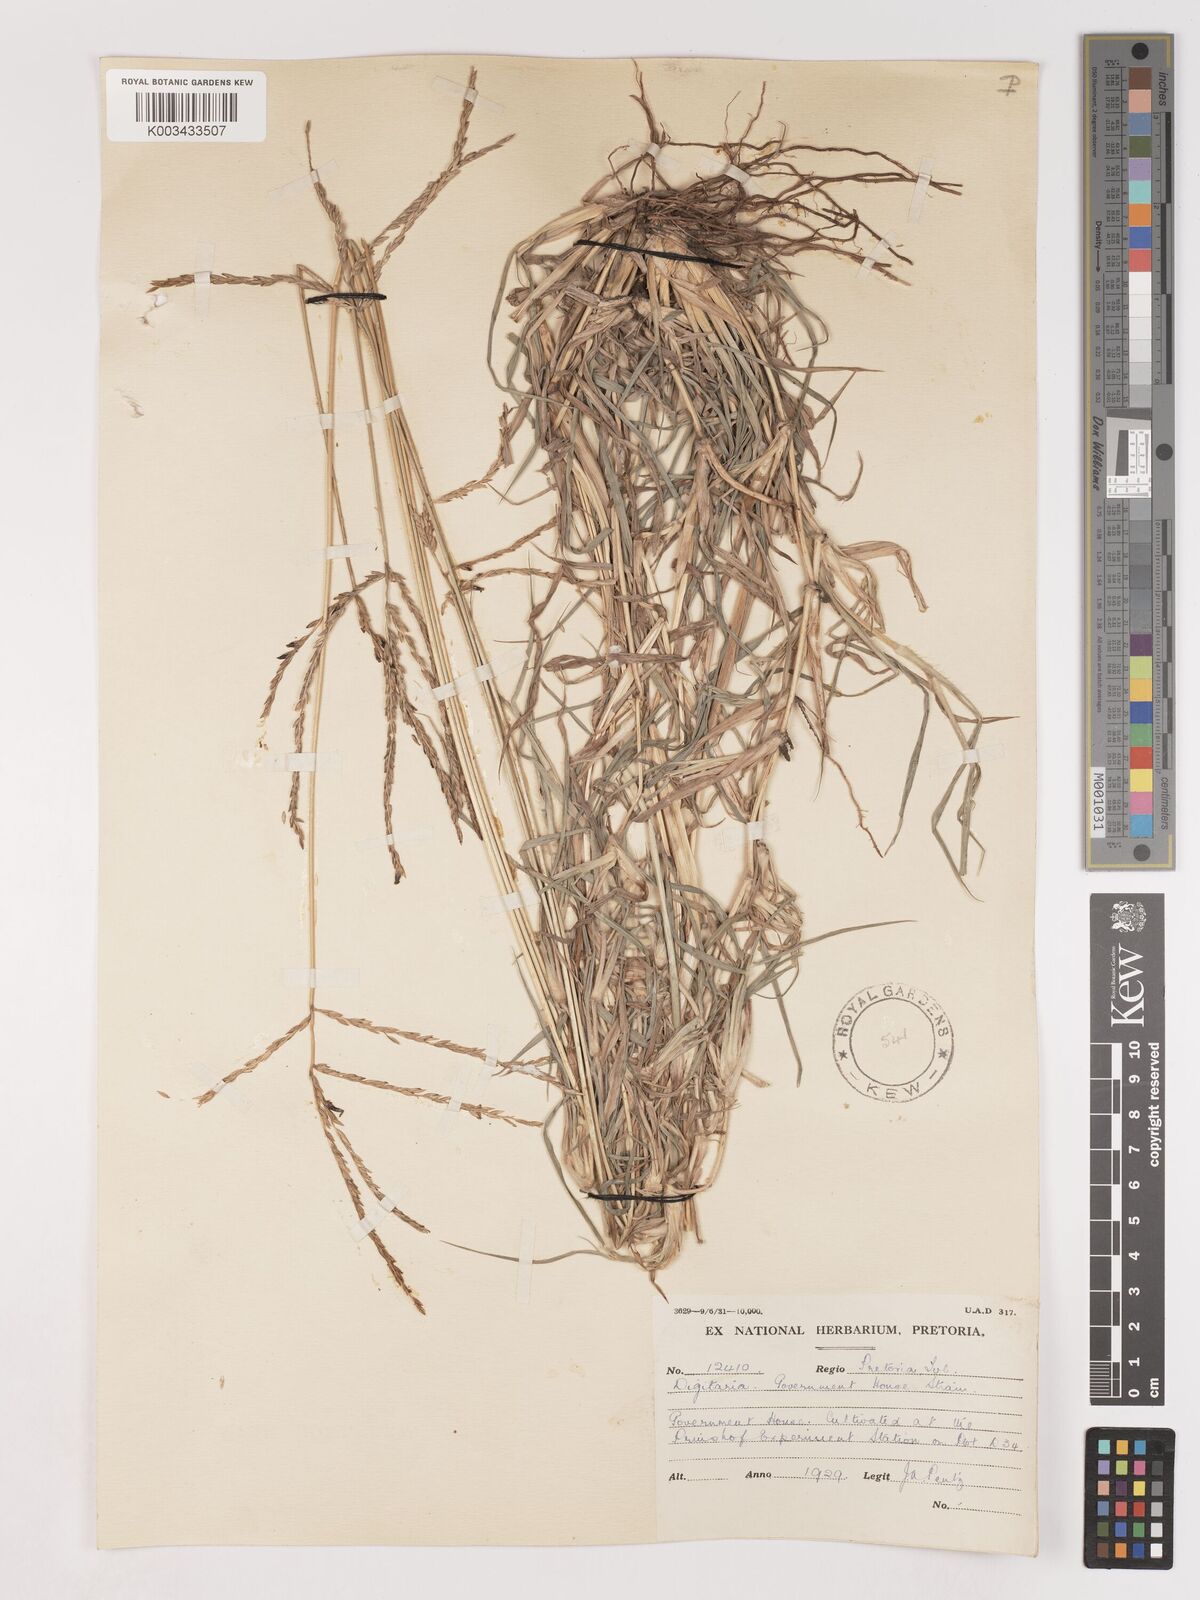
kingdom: Plantae
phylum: Tracheophyta
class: Liliopsida
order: Poales
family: Poaceae
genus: Digitaria
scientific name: Digitaria eriantha
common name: Digitgrass
